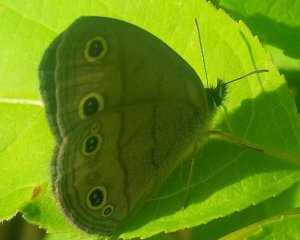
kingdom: Animalia
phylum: Arthropoda
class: Insecta
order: Lepidoptera
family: Nymphalidae
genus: Euptychia
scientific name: Euptychia cymela
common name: Little Wood Satyr
